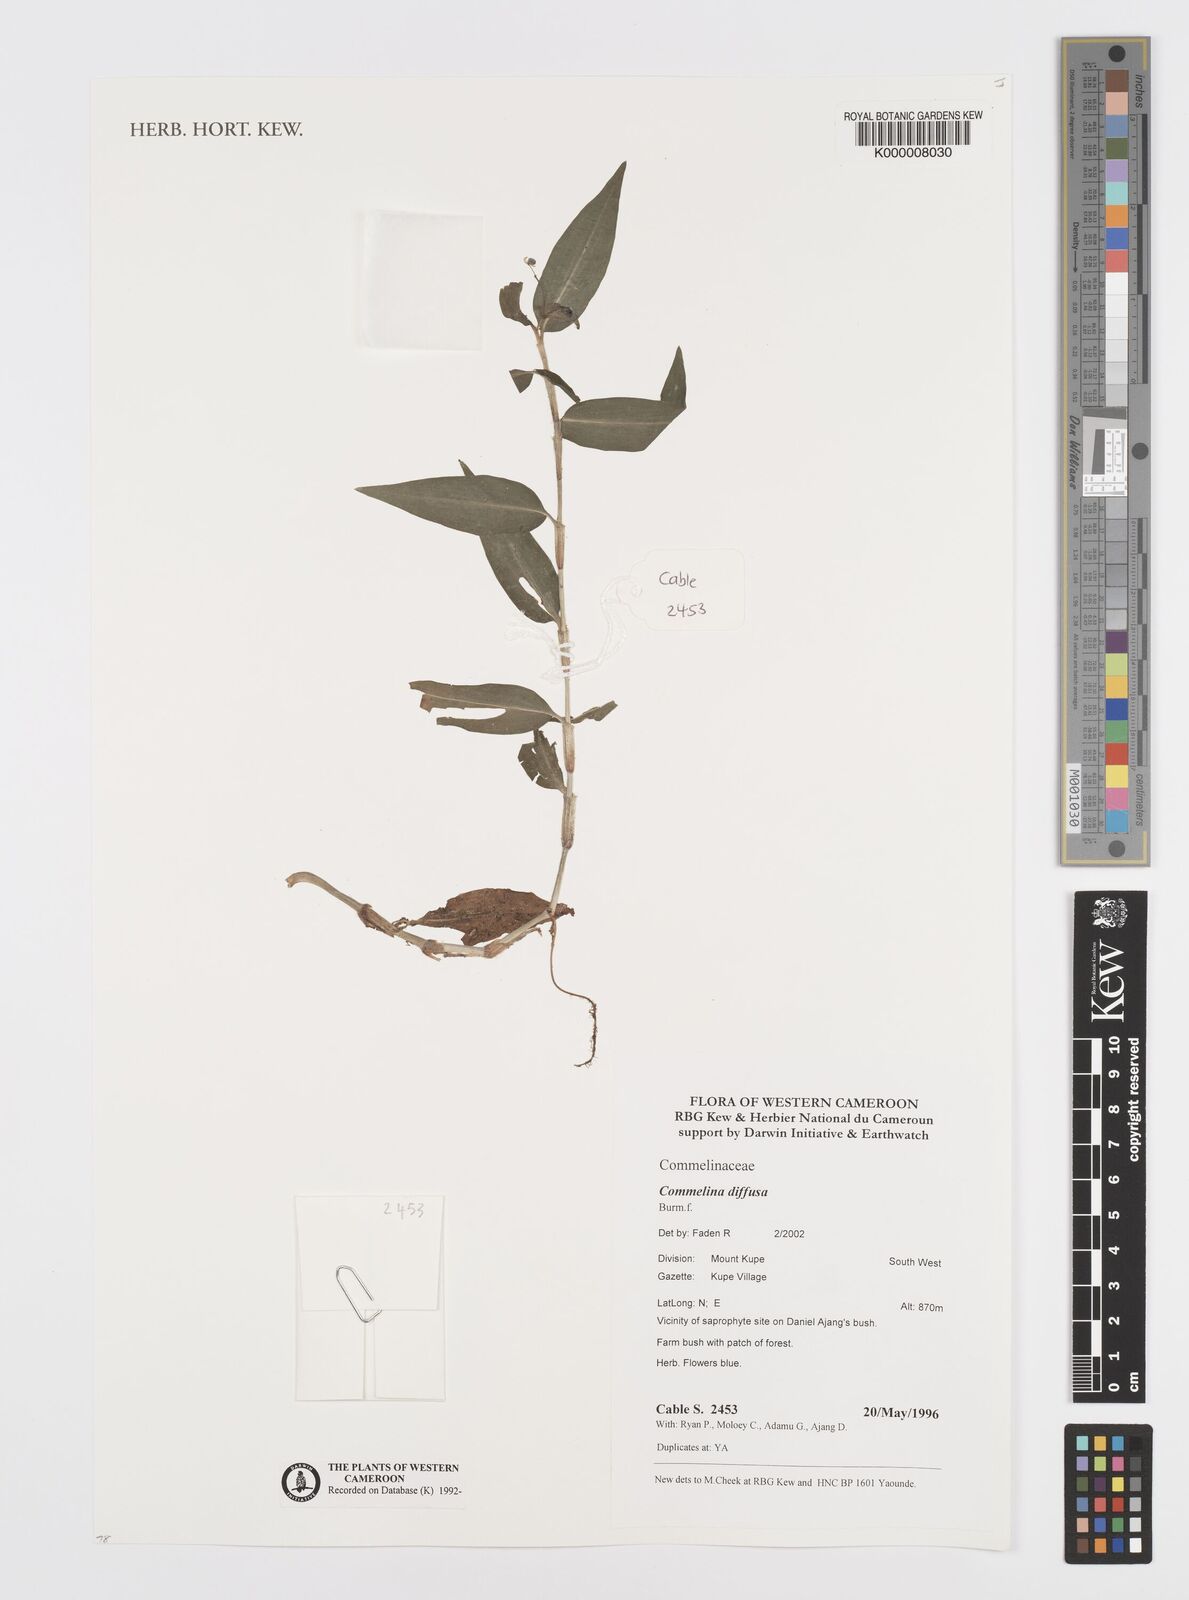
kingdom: Plantae
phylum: Tracheophyta
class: Liliopsida
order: Commelinales
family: Commelinaceae
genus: Commelina
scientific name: Commelina diffusa
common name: Climbing dayflower
